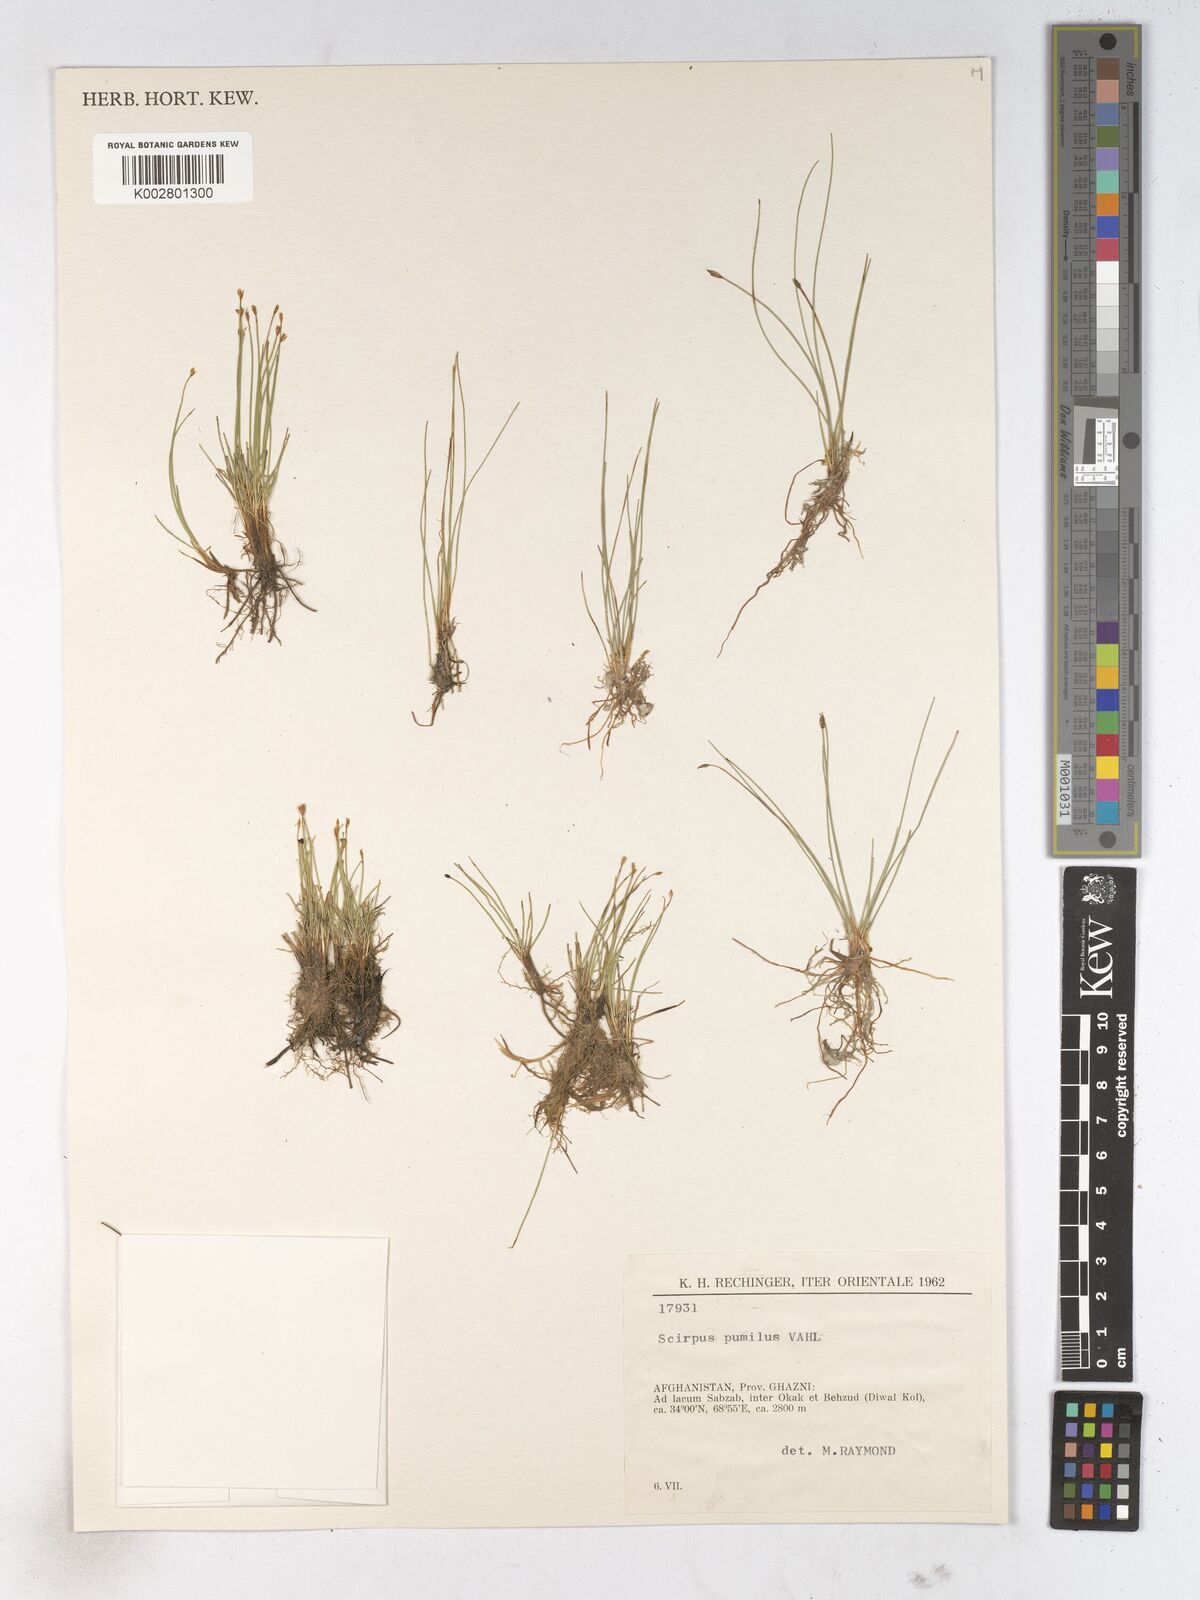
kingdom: Plantae
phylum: Tracheophyta
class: Liliopsida
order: Poales
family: Cyperaceae
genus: Trichophorum
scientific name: Trichophorum pumilum
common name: Rolland's bulrush
